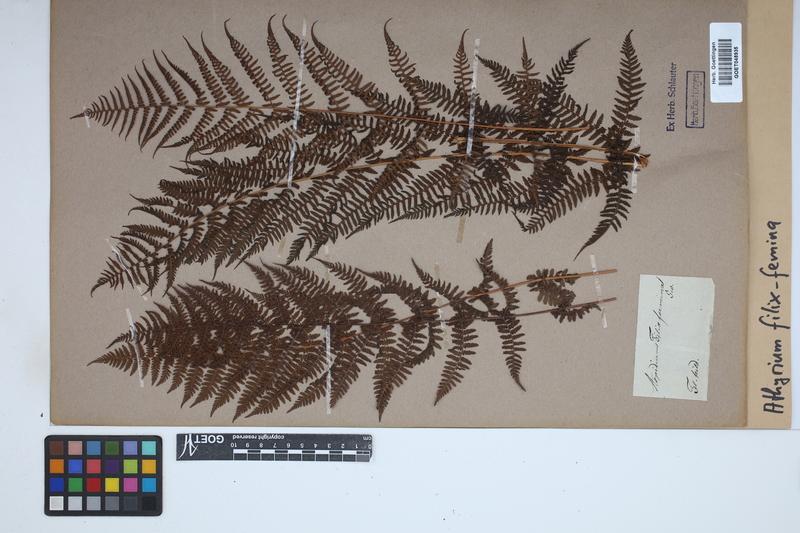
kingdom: Plantae
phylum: Tracheophyta
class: Polypodiopsida
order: Polypodiales
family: Athyriaceae
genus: Athyrium
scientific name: Athyrium filix-femina
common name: Lady fern
